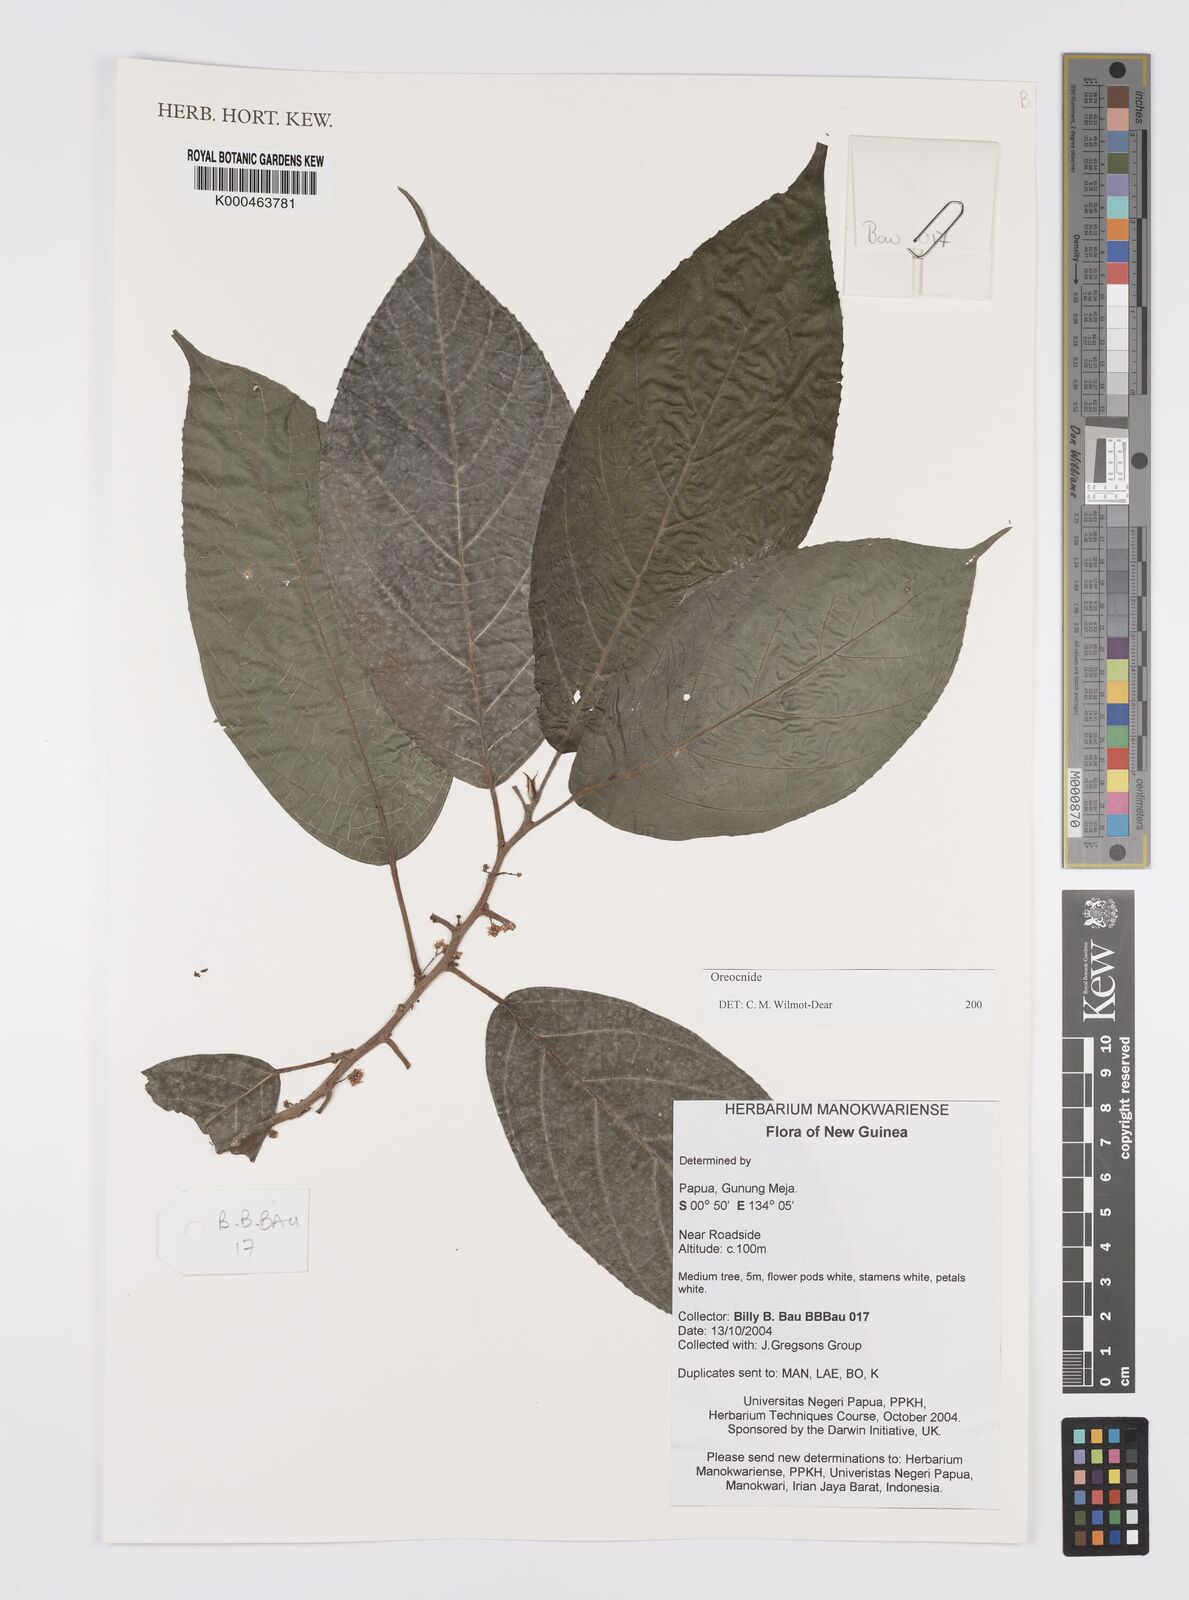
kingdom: Plantae
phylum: Tracheophyta
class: Magnoliopsida
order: Rosales
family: Urticaceae
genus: Oreocnide
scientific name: Oreocnide
